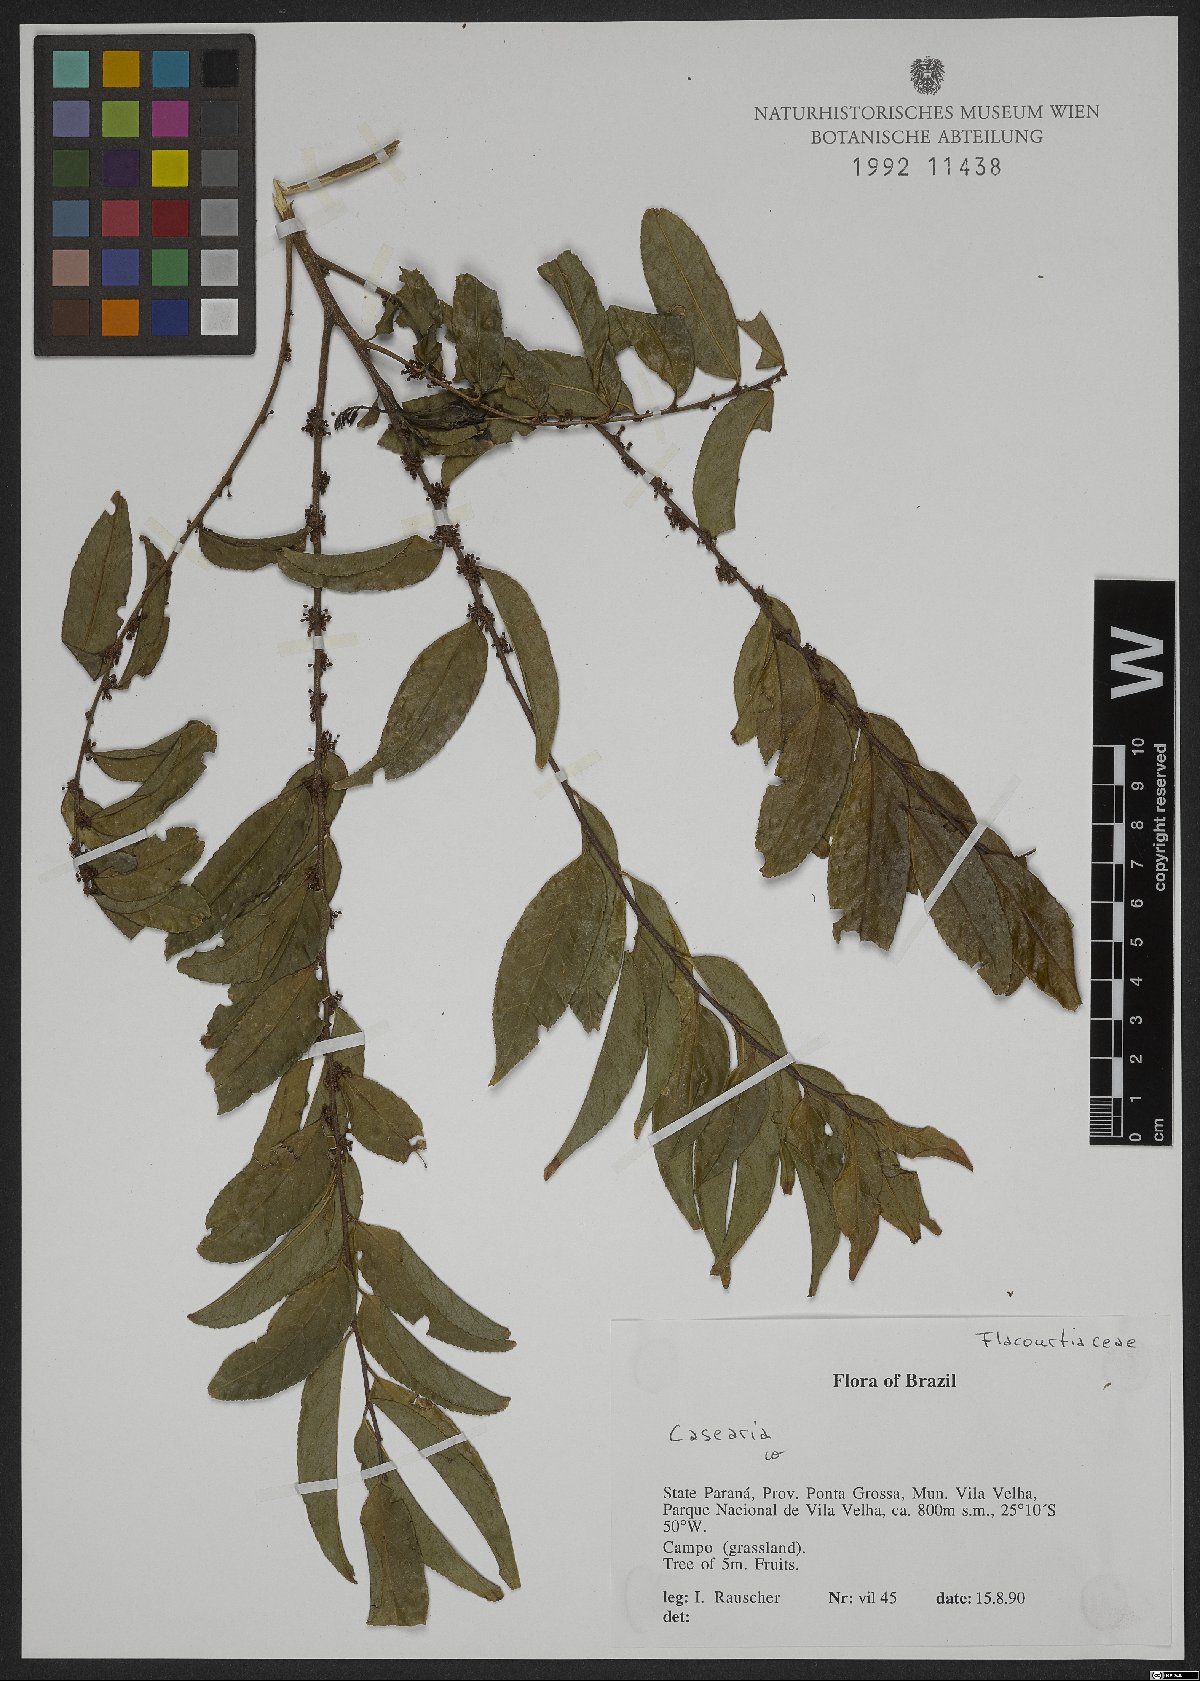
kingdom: Plantae
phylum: Tracheophyta
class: Magnoliopsida
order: Malpighiales
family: Salicaceae
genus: Casearia
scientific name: Casearia
